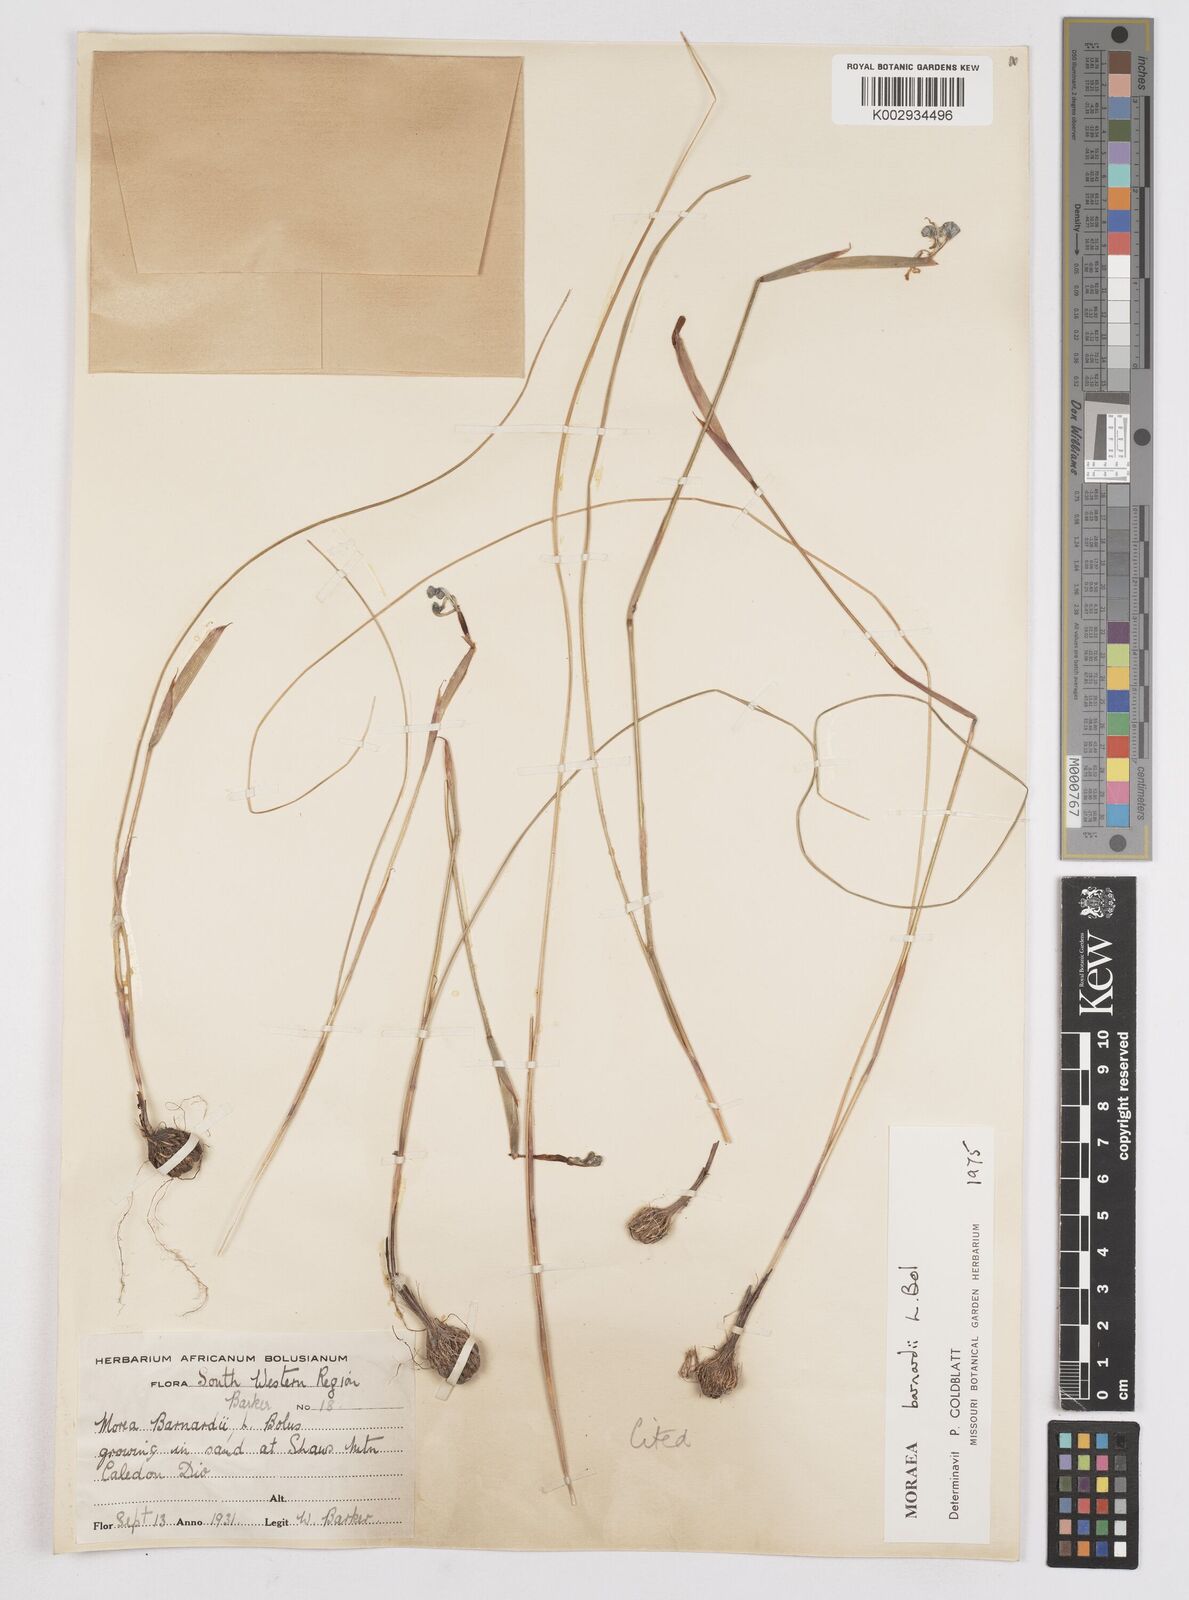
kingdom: Plantae
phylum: Tracheophyta
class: Liliopsida
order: Asparagales
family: Iridaceae
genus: Moraea
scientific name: Moraea barnardii
